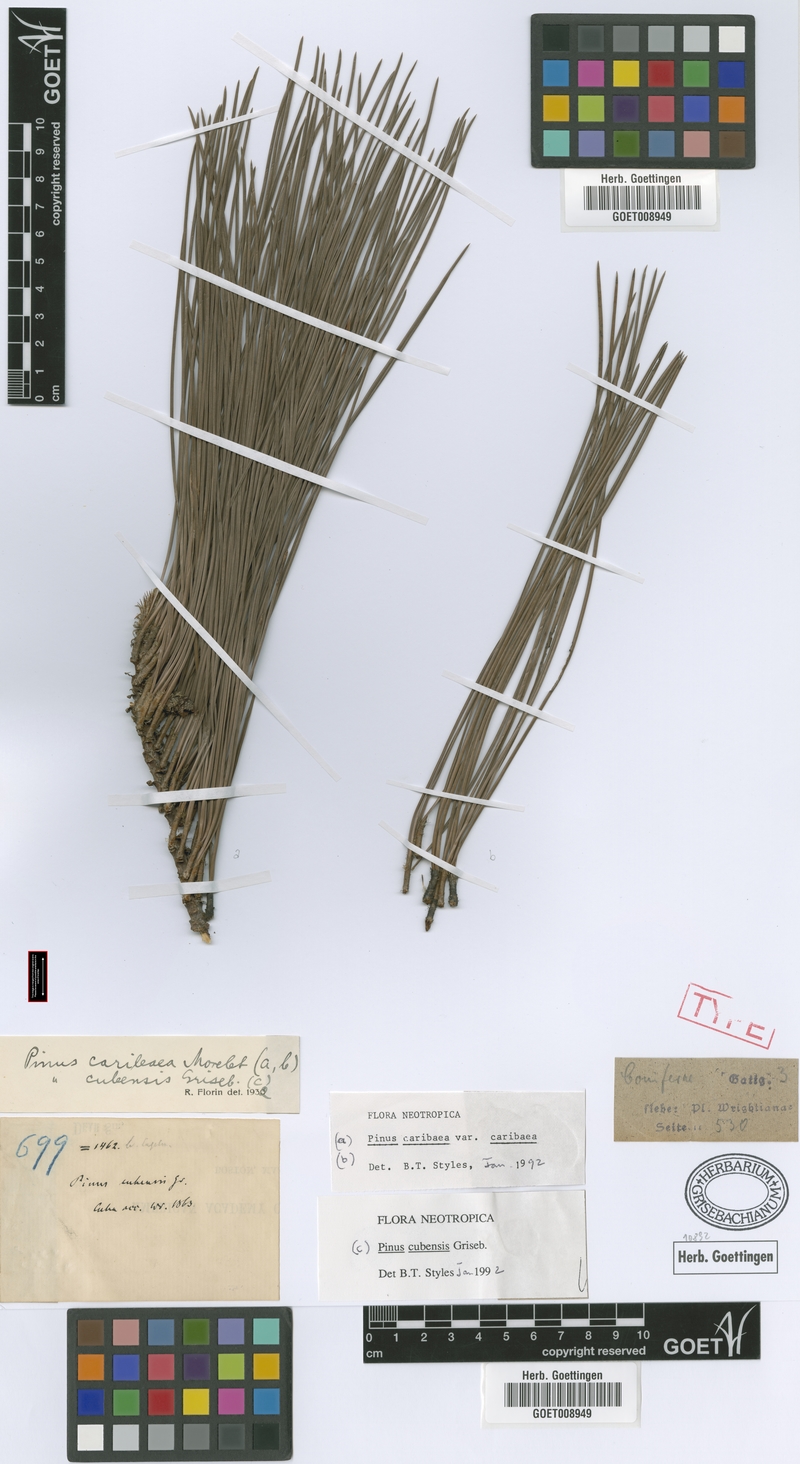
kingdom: Plantae
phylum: Tracheophyta
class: Pinopsida
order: Pinales
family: Pinaceae
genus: Pinus
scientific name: Pinus cubensis
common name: Cuban pine
